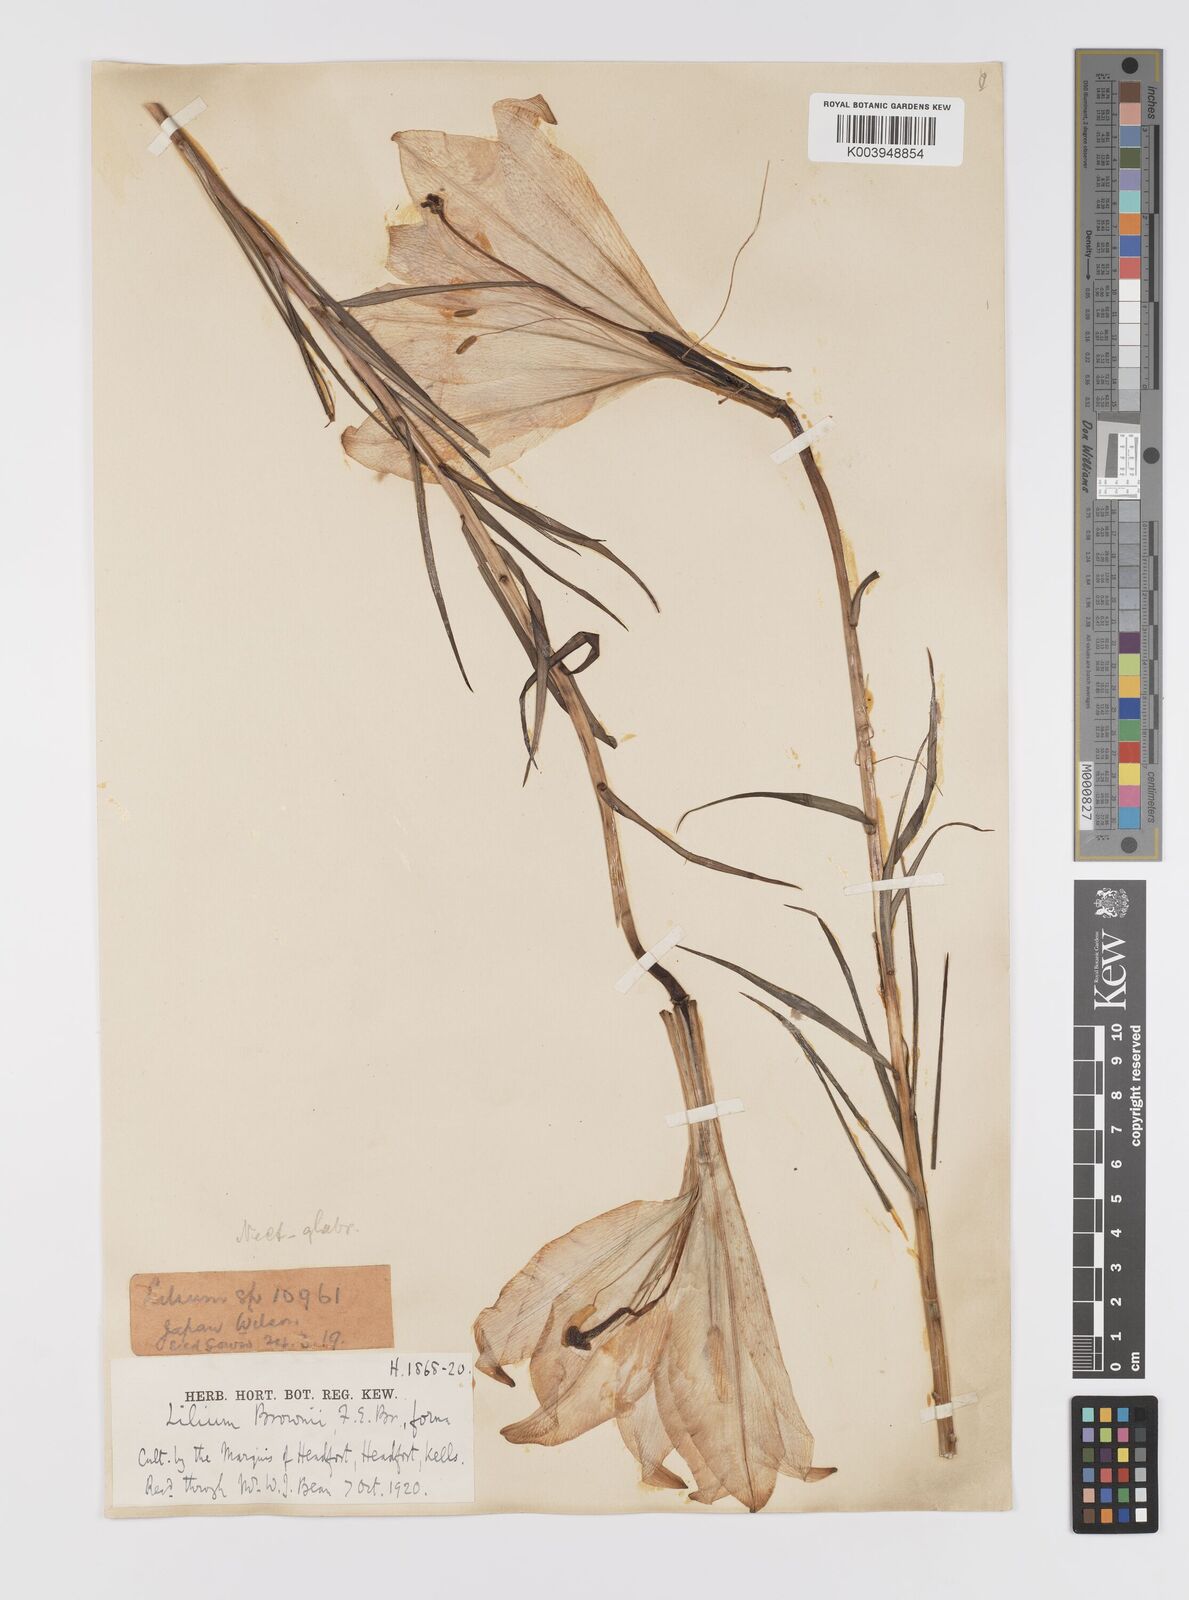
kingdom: Plantae
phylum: Tracheophyta
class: Liliopsida
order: Liliales
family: Liliaceae
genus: Lilium
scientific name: Lilium formosanum
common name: Formosa lily
